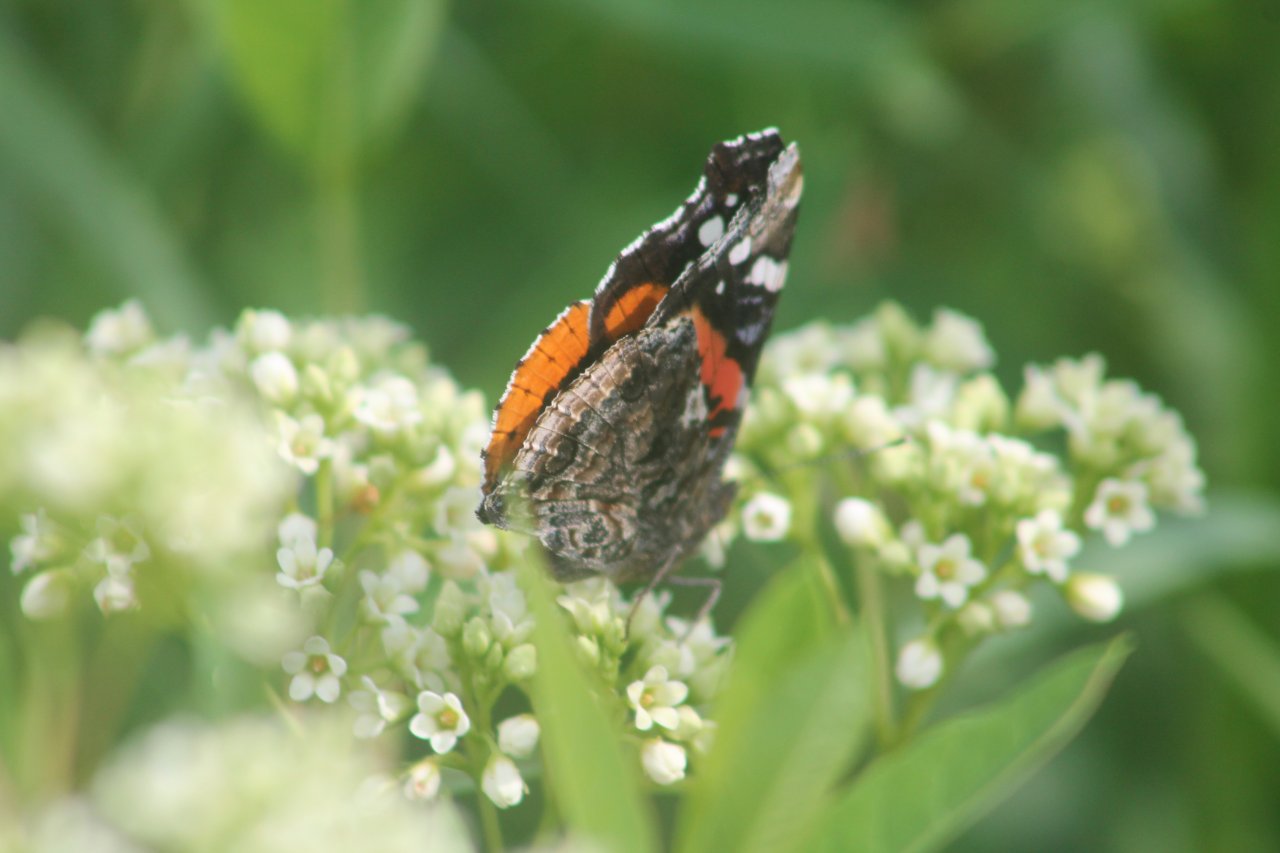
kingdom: Animalia
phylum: Arthropoda
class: Insecta
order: Lepidoptera
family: Nymphalidae
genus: Vanessa
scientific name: Vanessa atalanta
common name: Red Admiral
